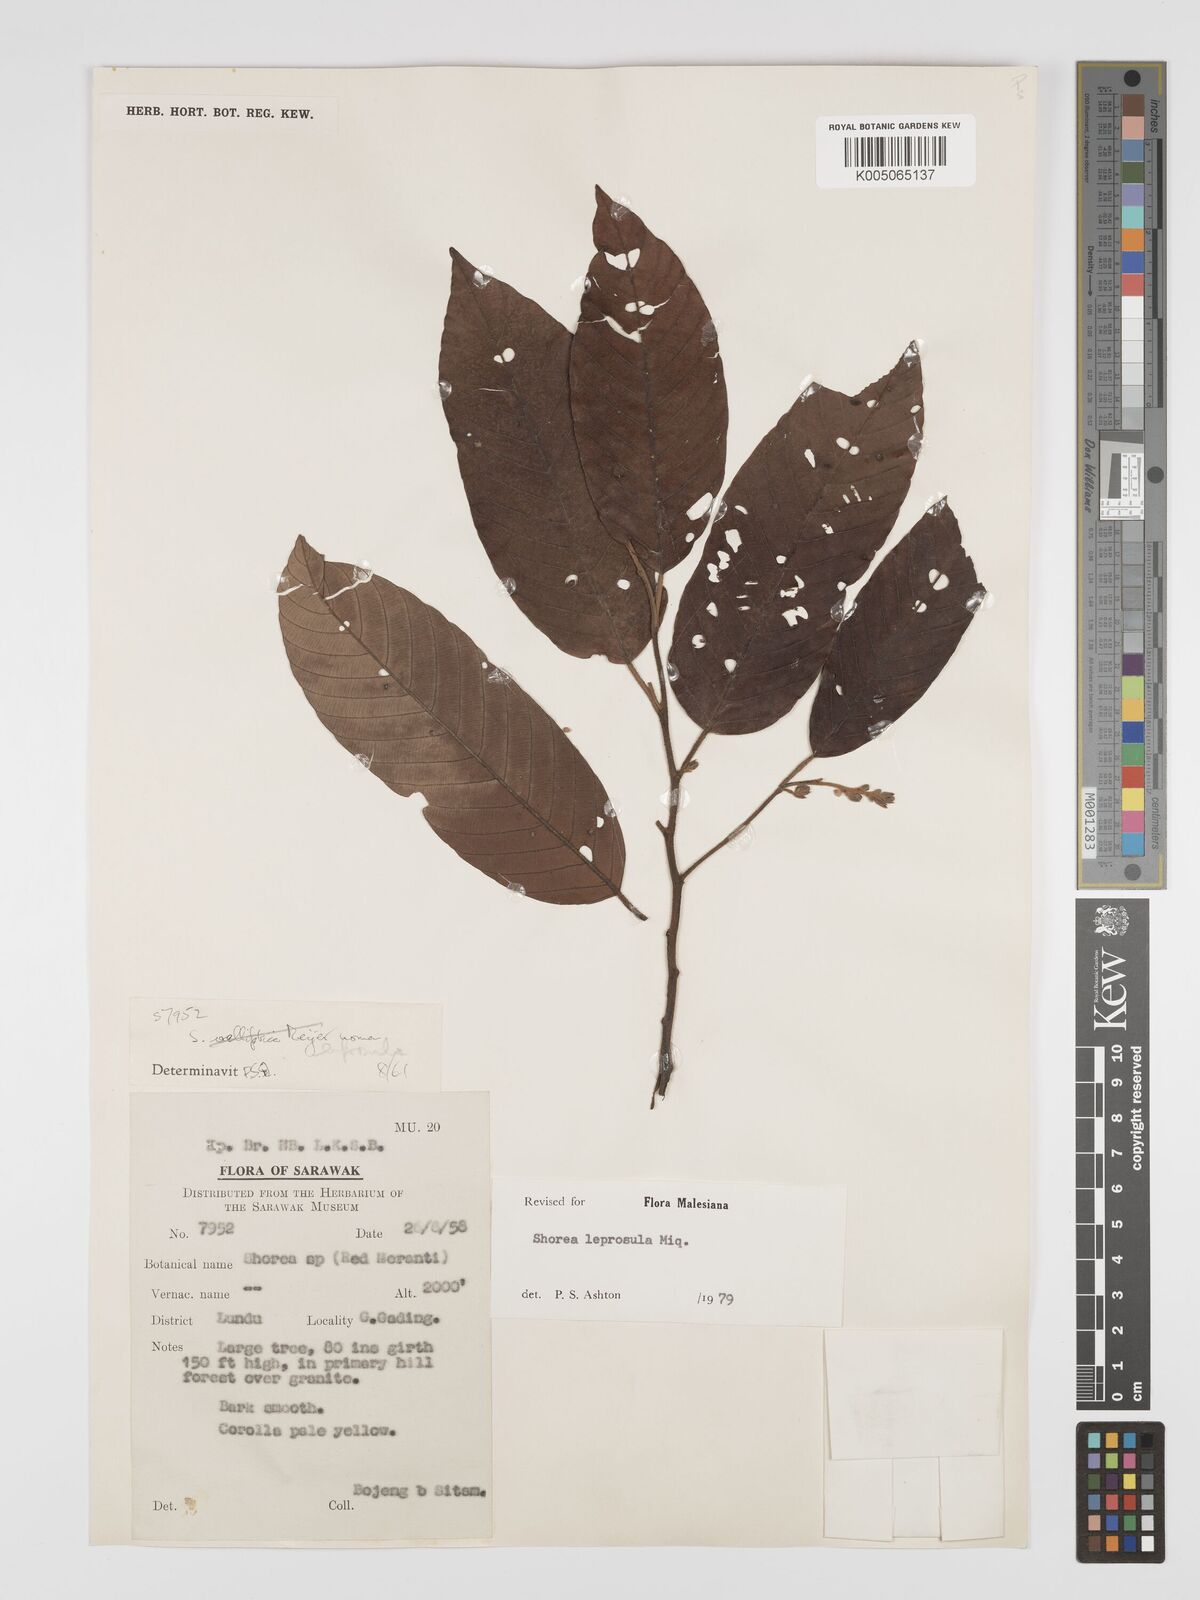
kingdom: Plantae
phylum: Tracheophyta
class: Magnoliopsida
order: Malvales
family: Dipterocarpaceae
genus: Shorea
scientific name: Shorea leprosula
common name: Light red meranti
